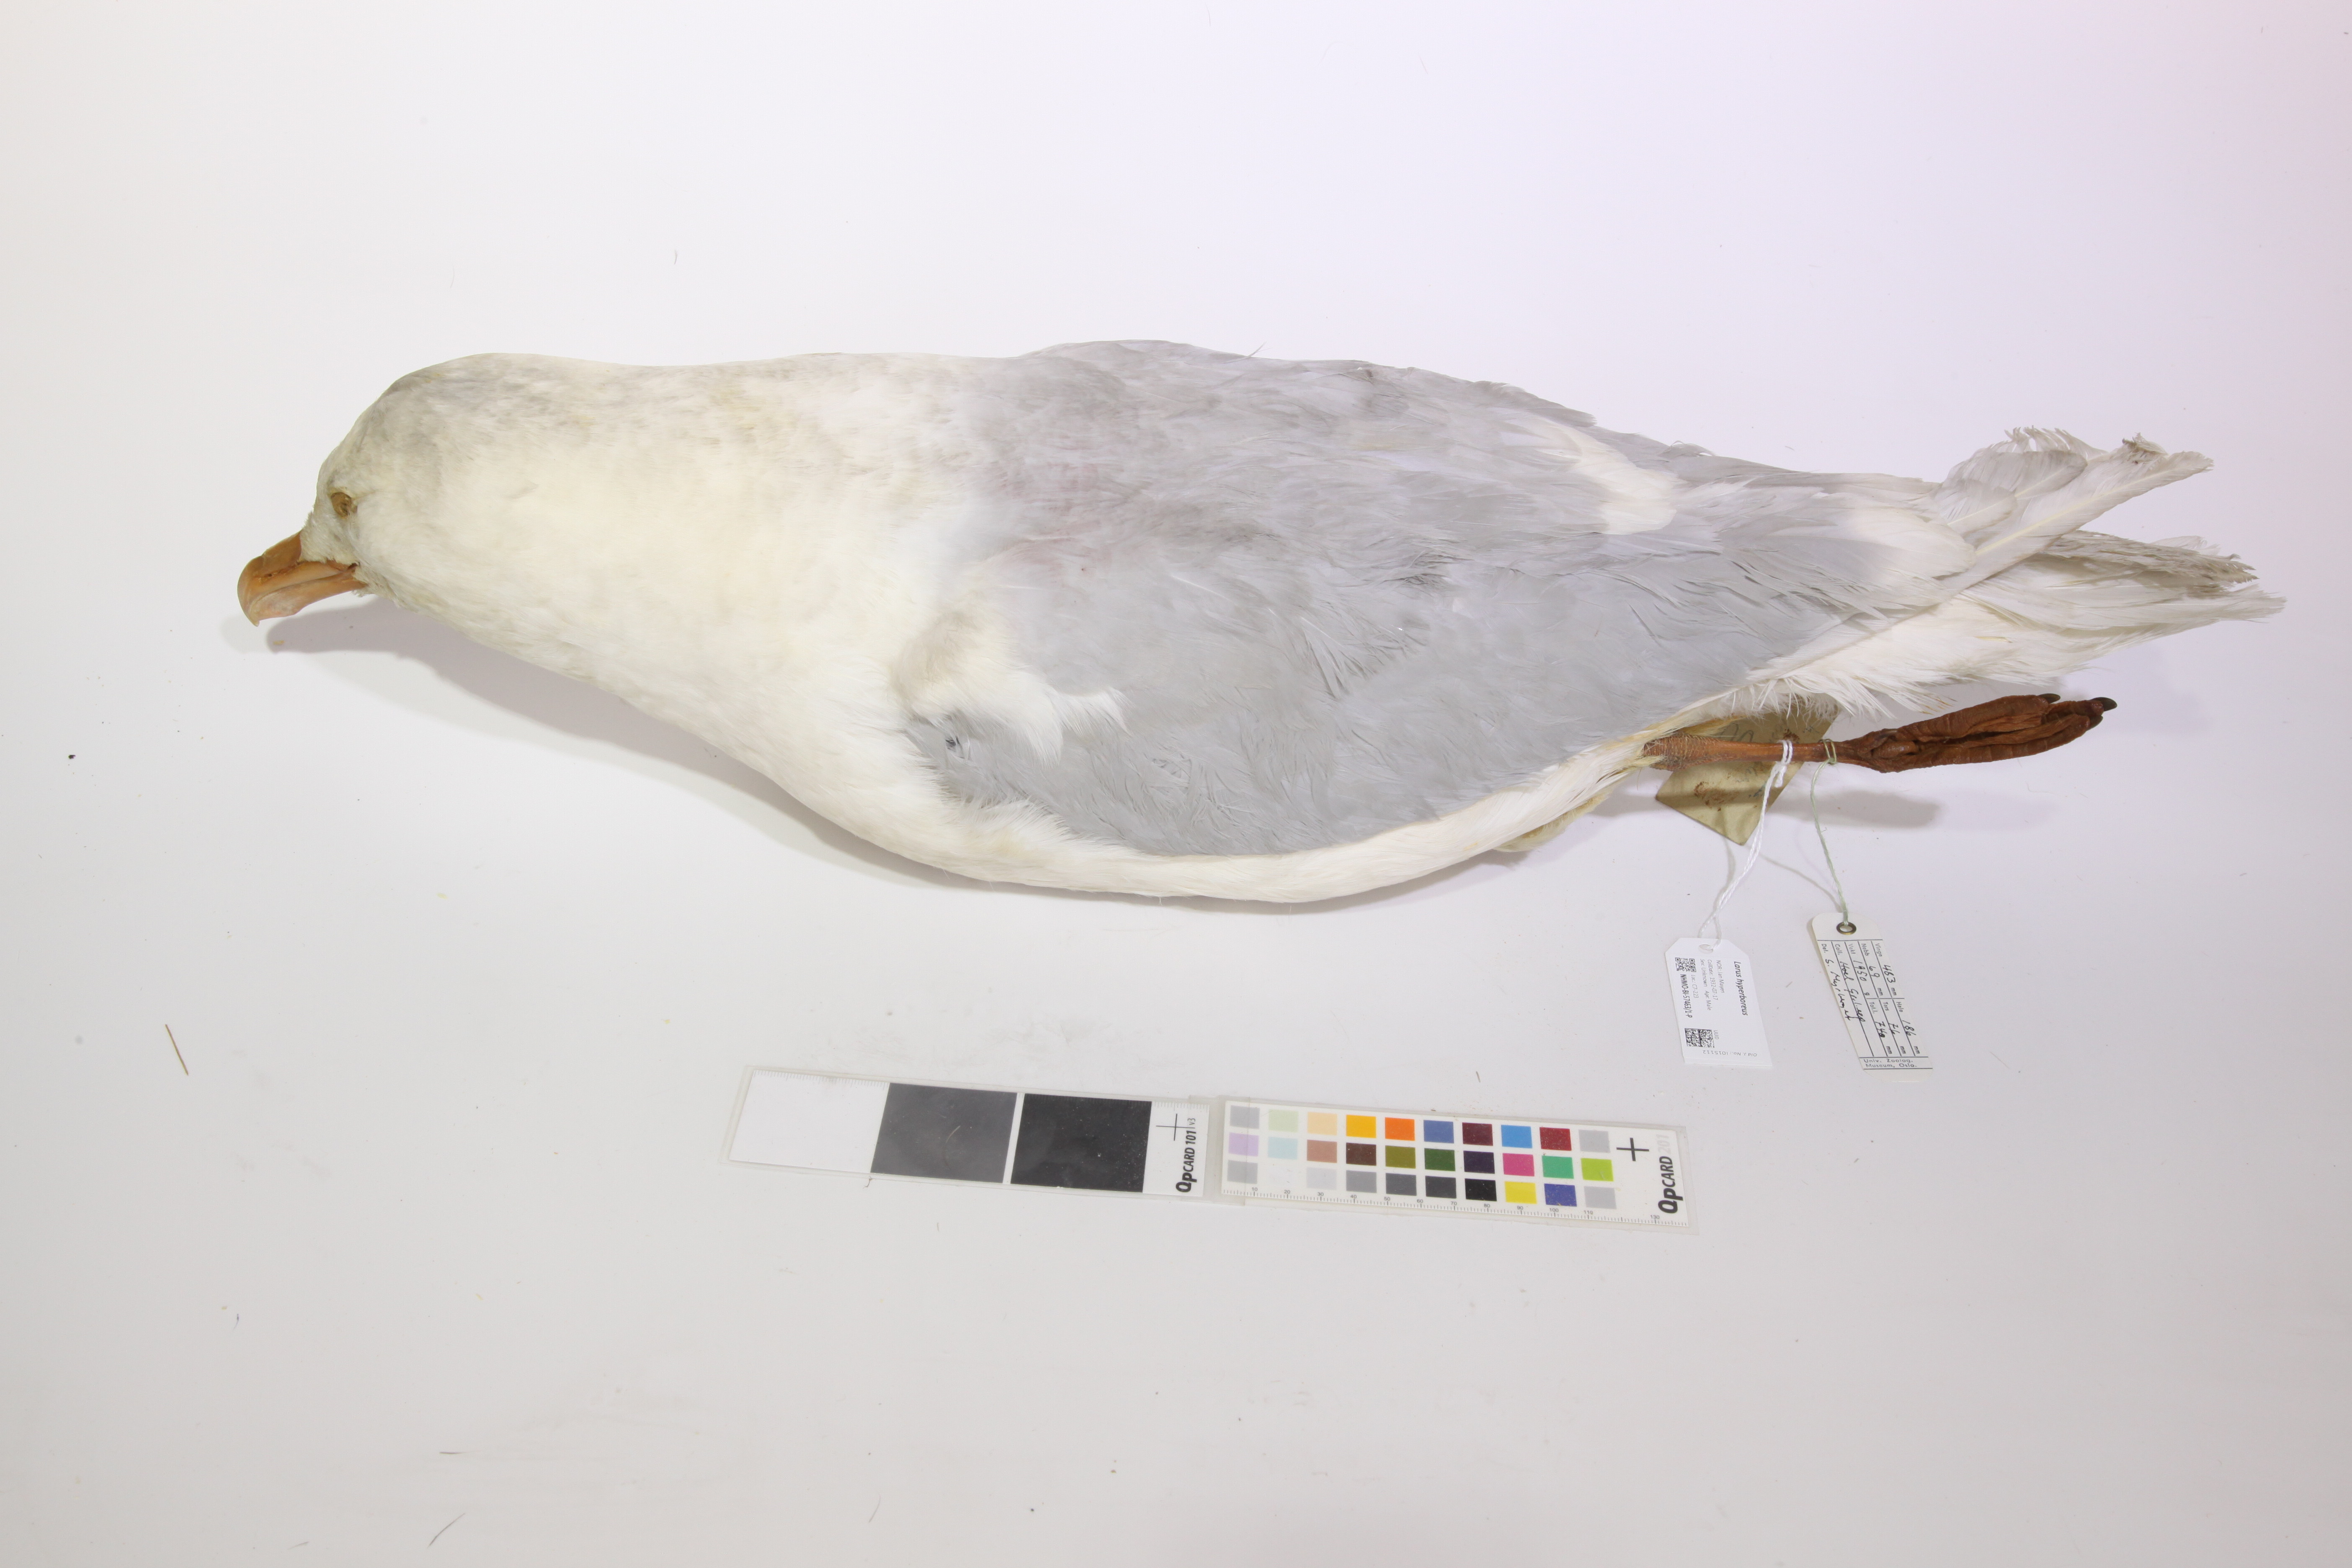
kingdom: Animalia
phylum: Chordata
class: Aves
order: Charadriiformes
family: Laridae
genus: Larus
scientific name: Larus hyperboreus
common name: Glaucous gull
